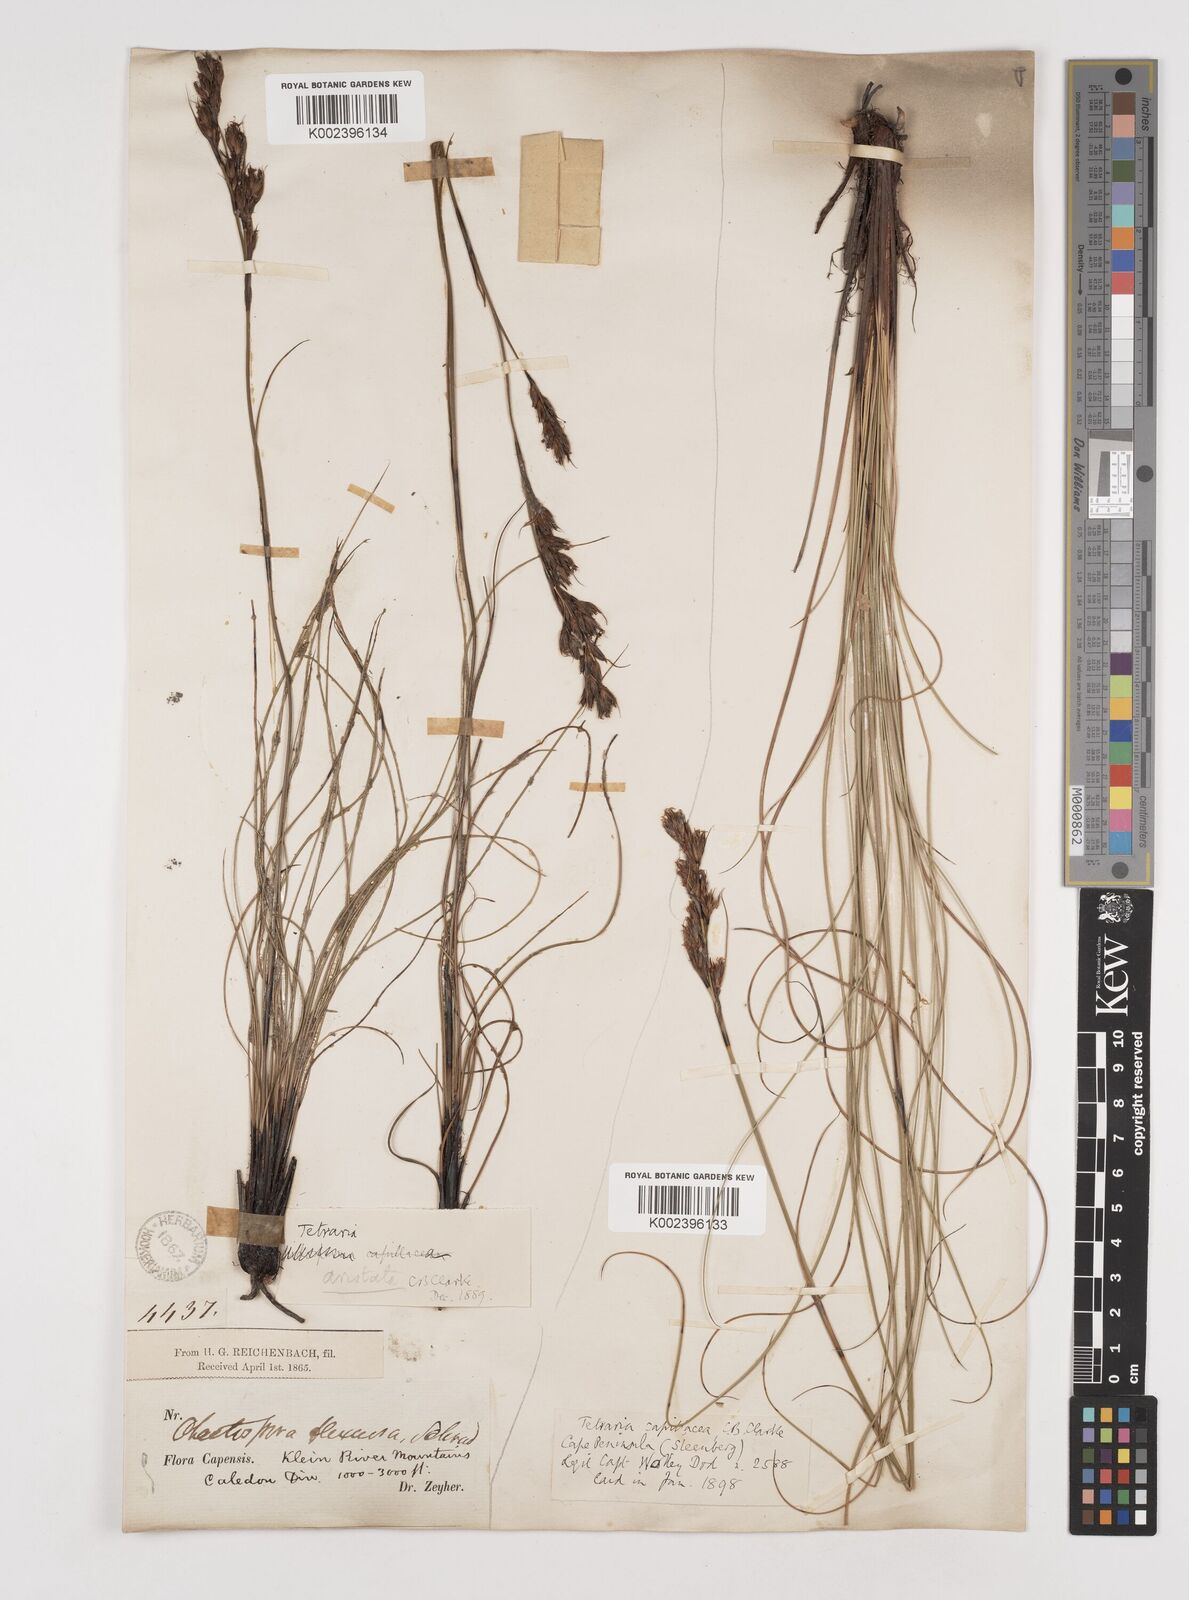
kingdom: Plantae
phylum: Tracheophyta
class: Liliopsida
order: Poales
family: Cyperaceae
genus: Tetraria
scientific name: Tetraria flexuosa
